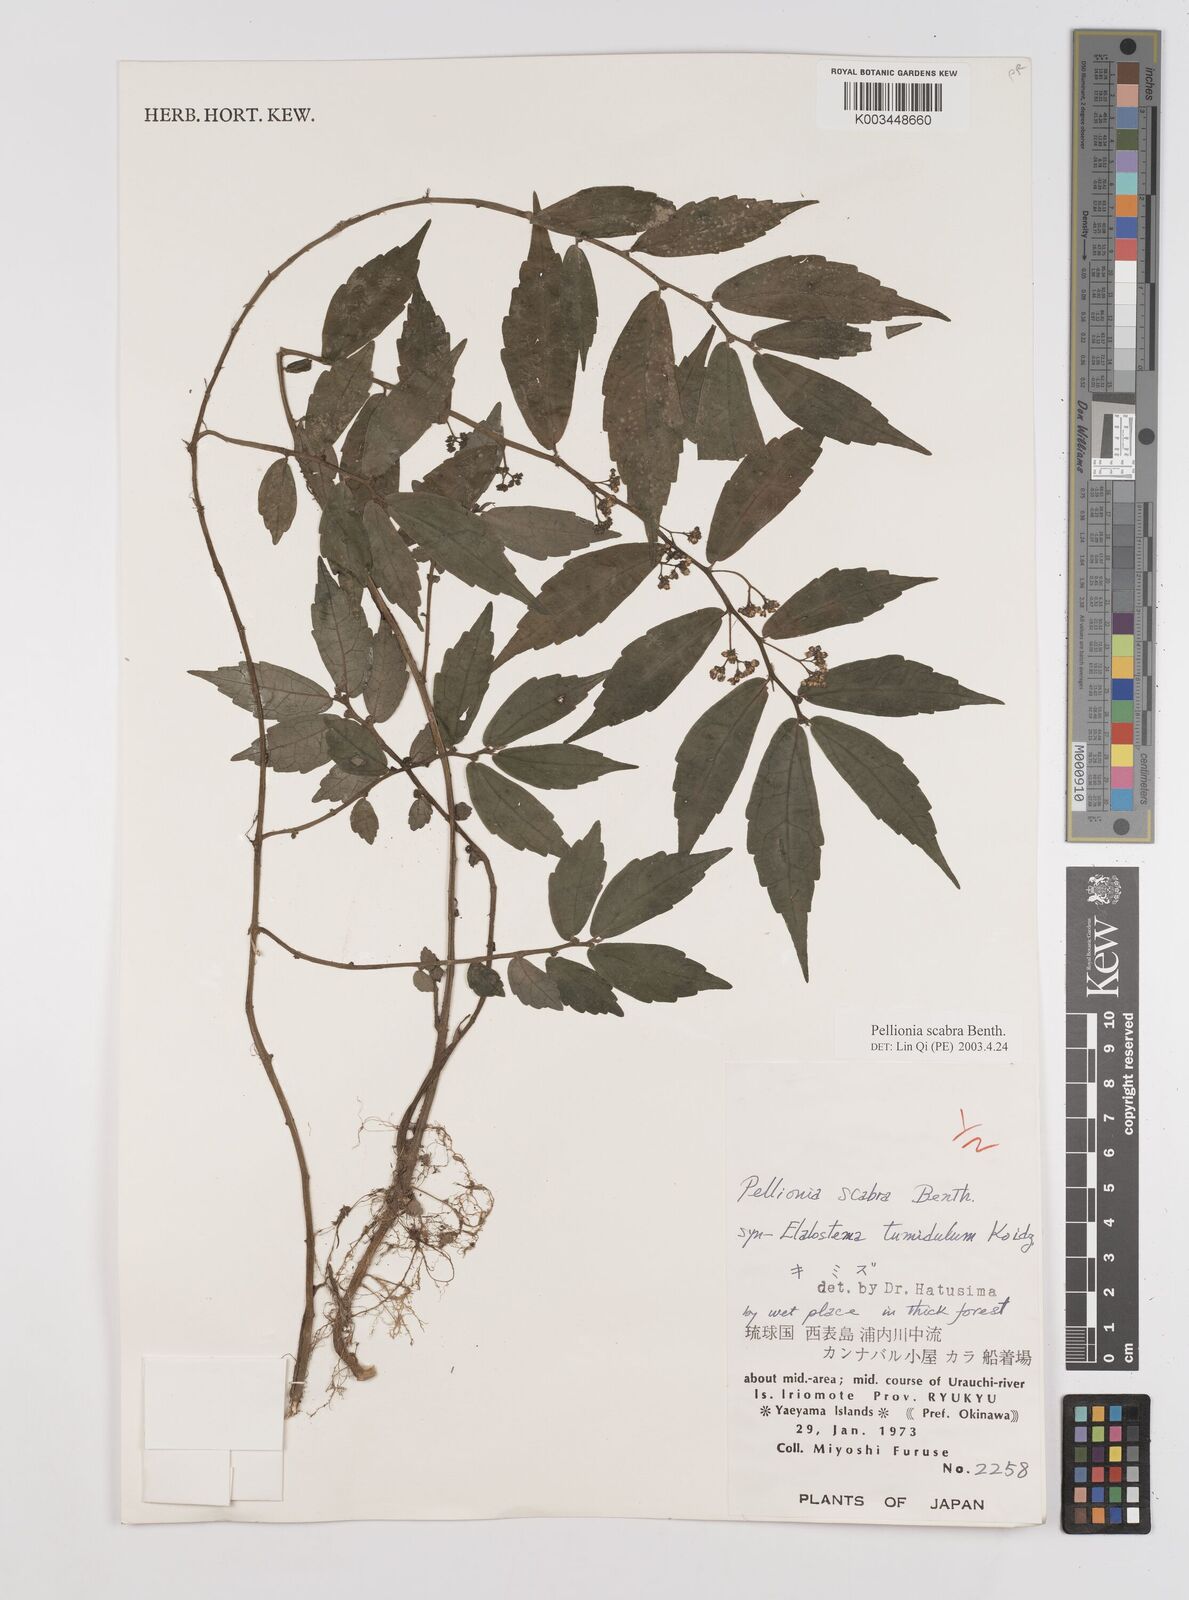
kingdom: Plantae
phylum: Tracheophyta
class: Magnoliopsida
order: Rosales
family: Urticaceae
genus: Elatostema
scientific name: Elatostema
